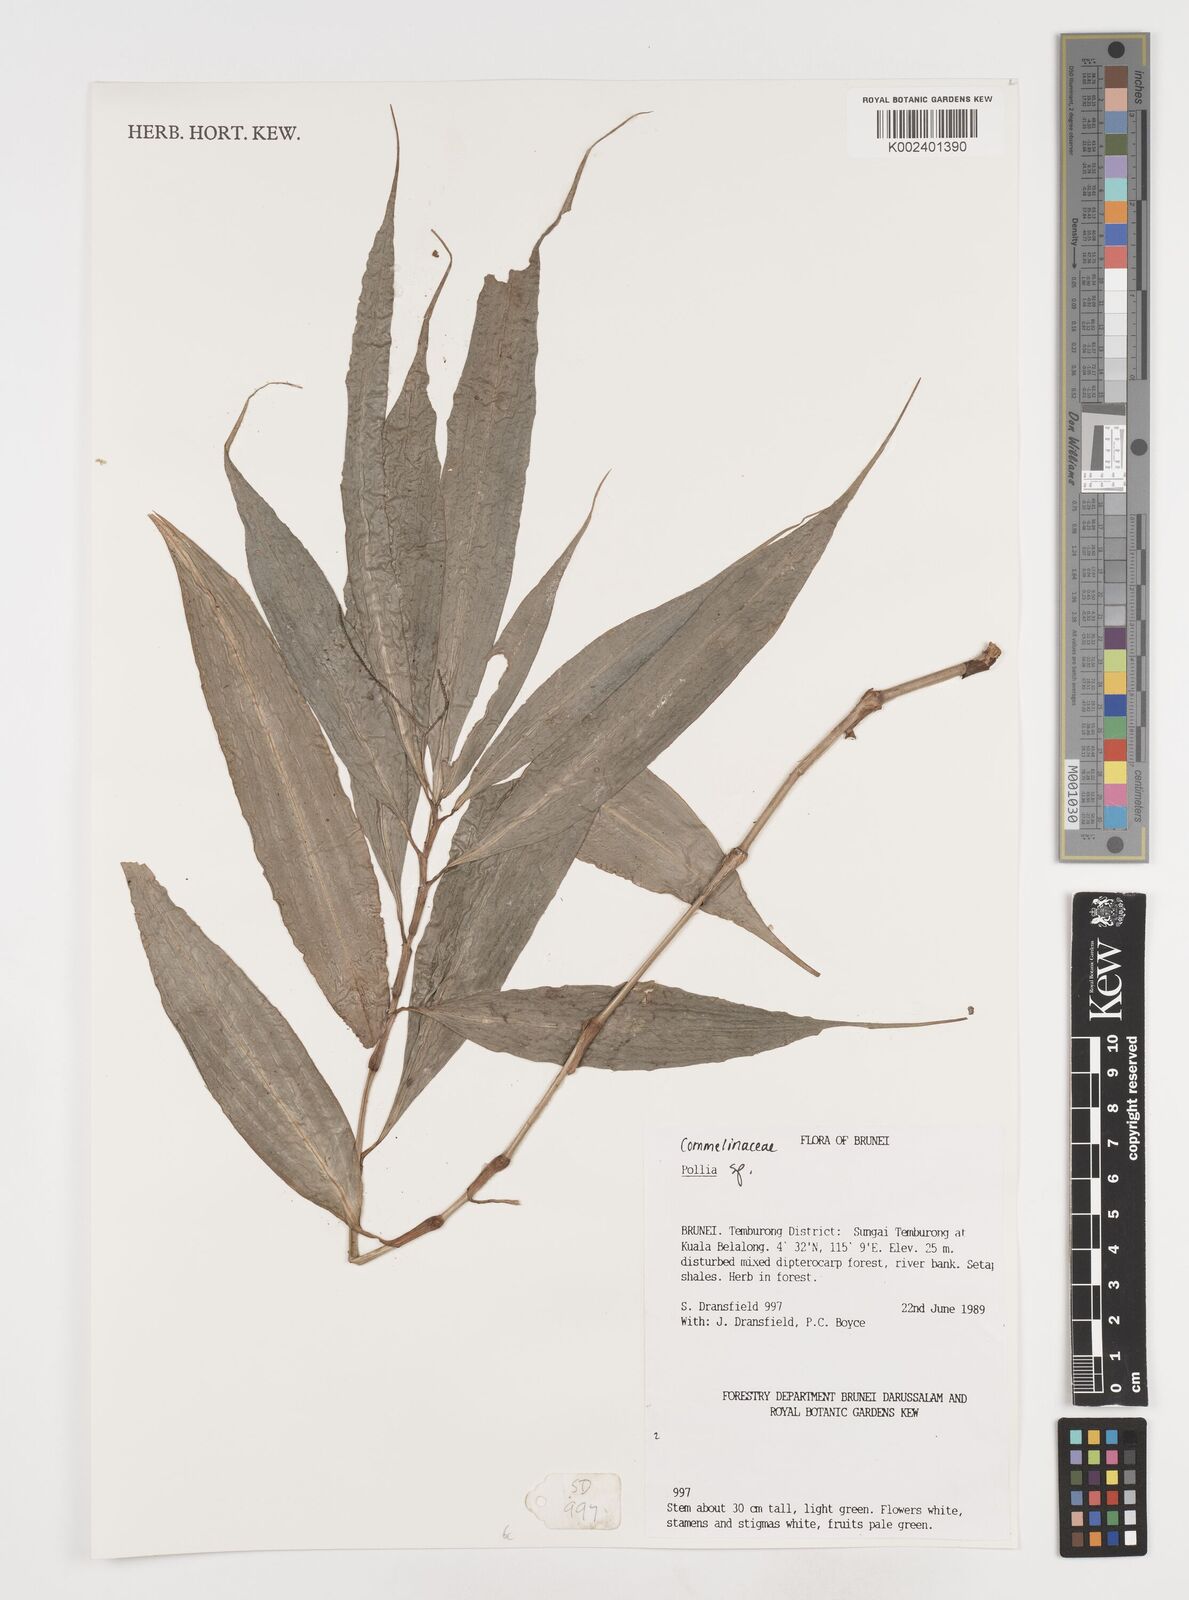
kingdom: Plantae
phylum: Tracheophyta
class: Liliopsida
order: Commelinales
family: Commelinaceae
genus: Pollia
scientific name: Pollia
